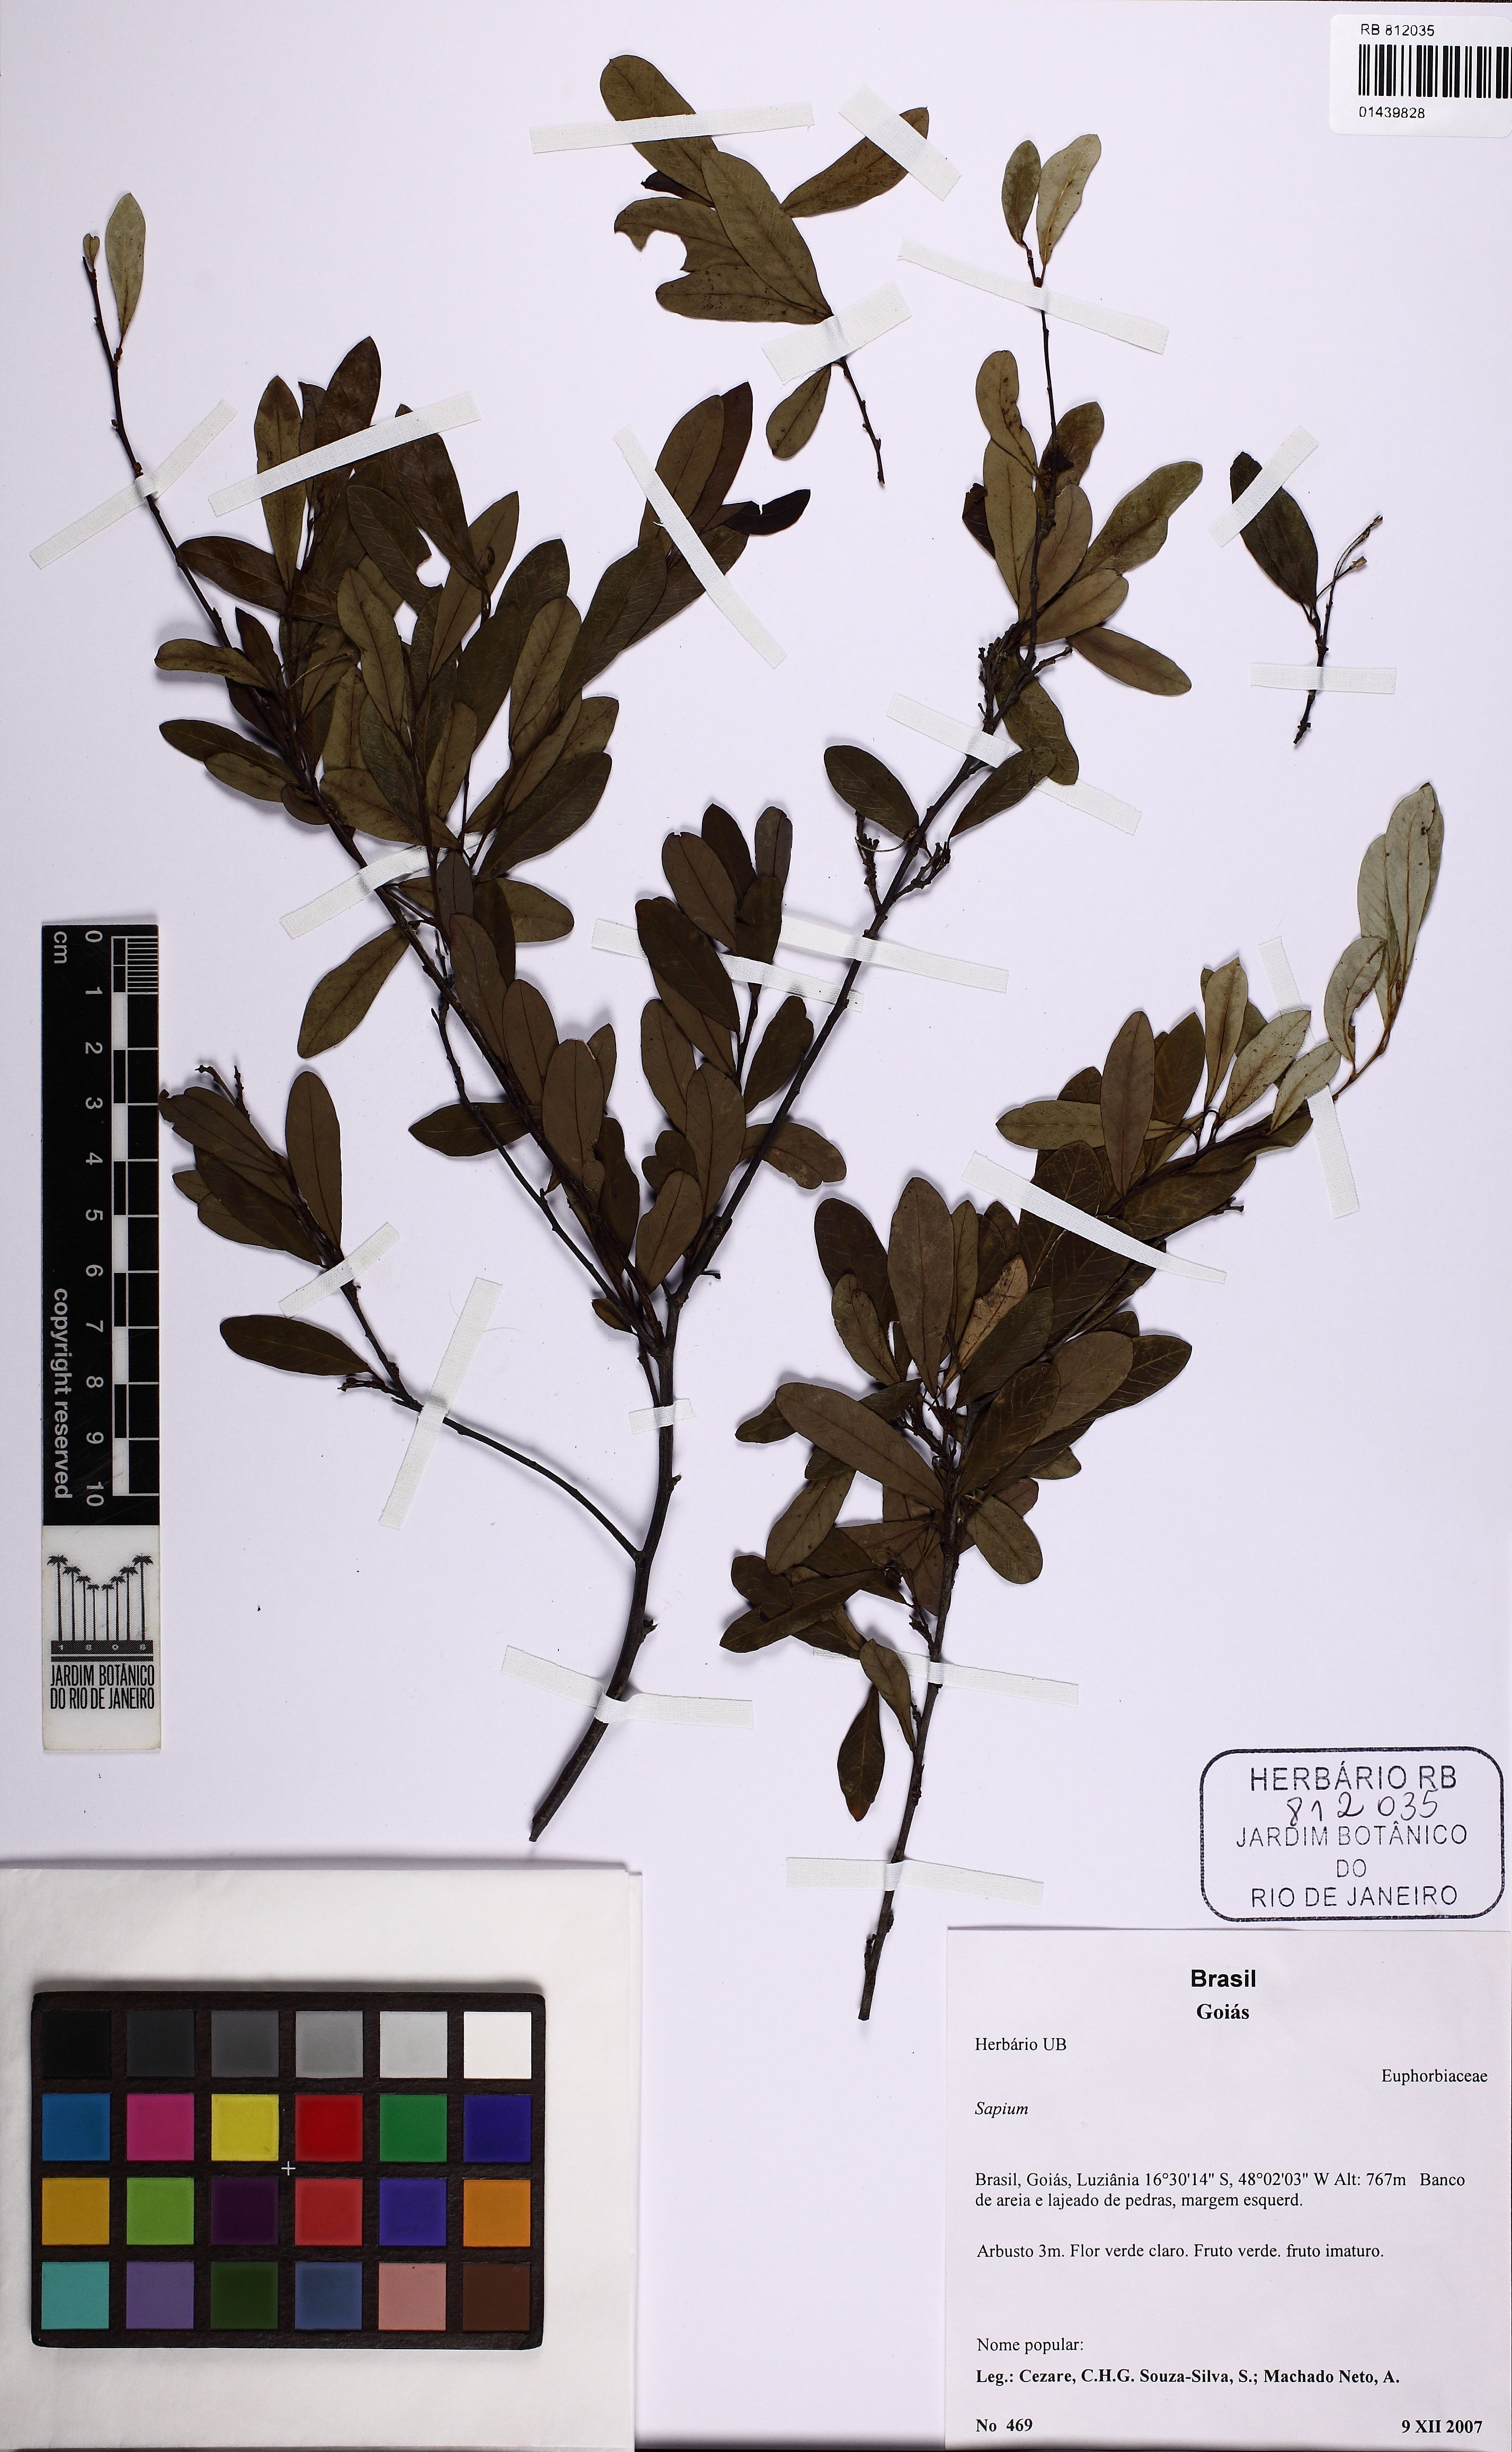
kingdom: Plantae
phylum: Tracheophyta
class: Magnoliopsida
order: Malpighiales
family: Euphorbiaceae
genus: Sapium
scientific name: Sapium
